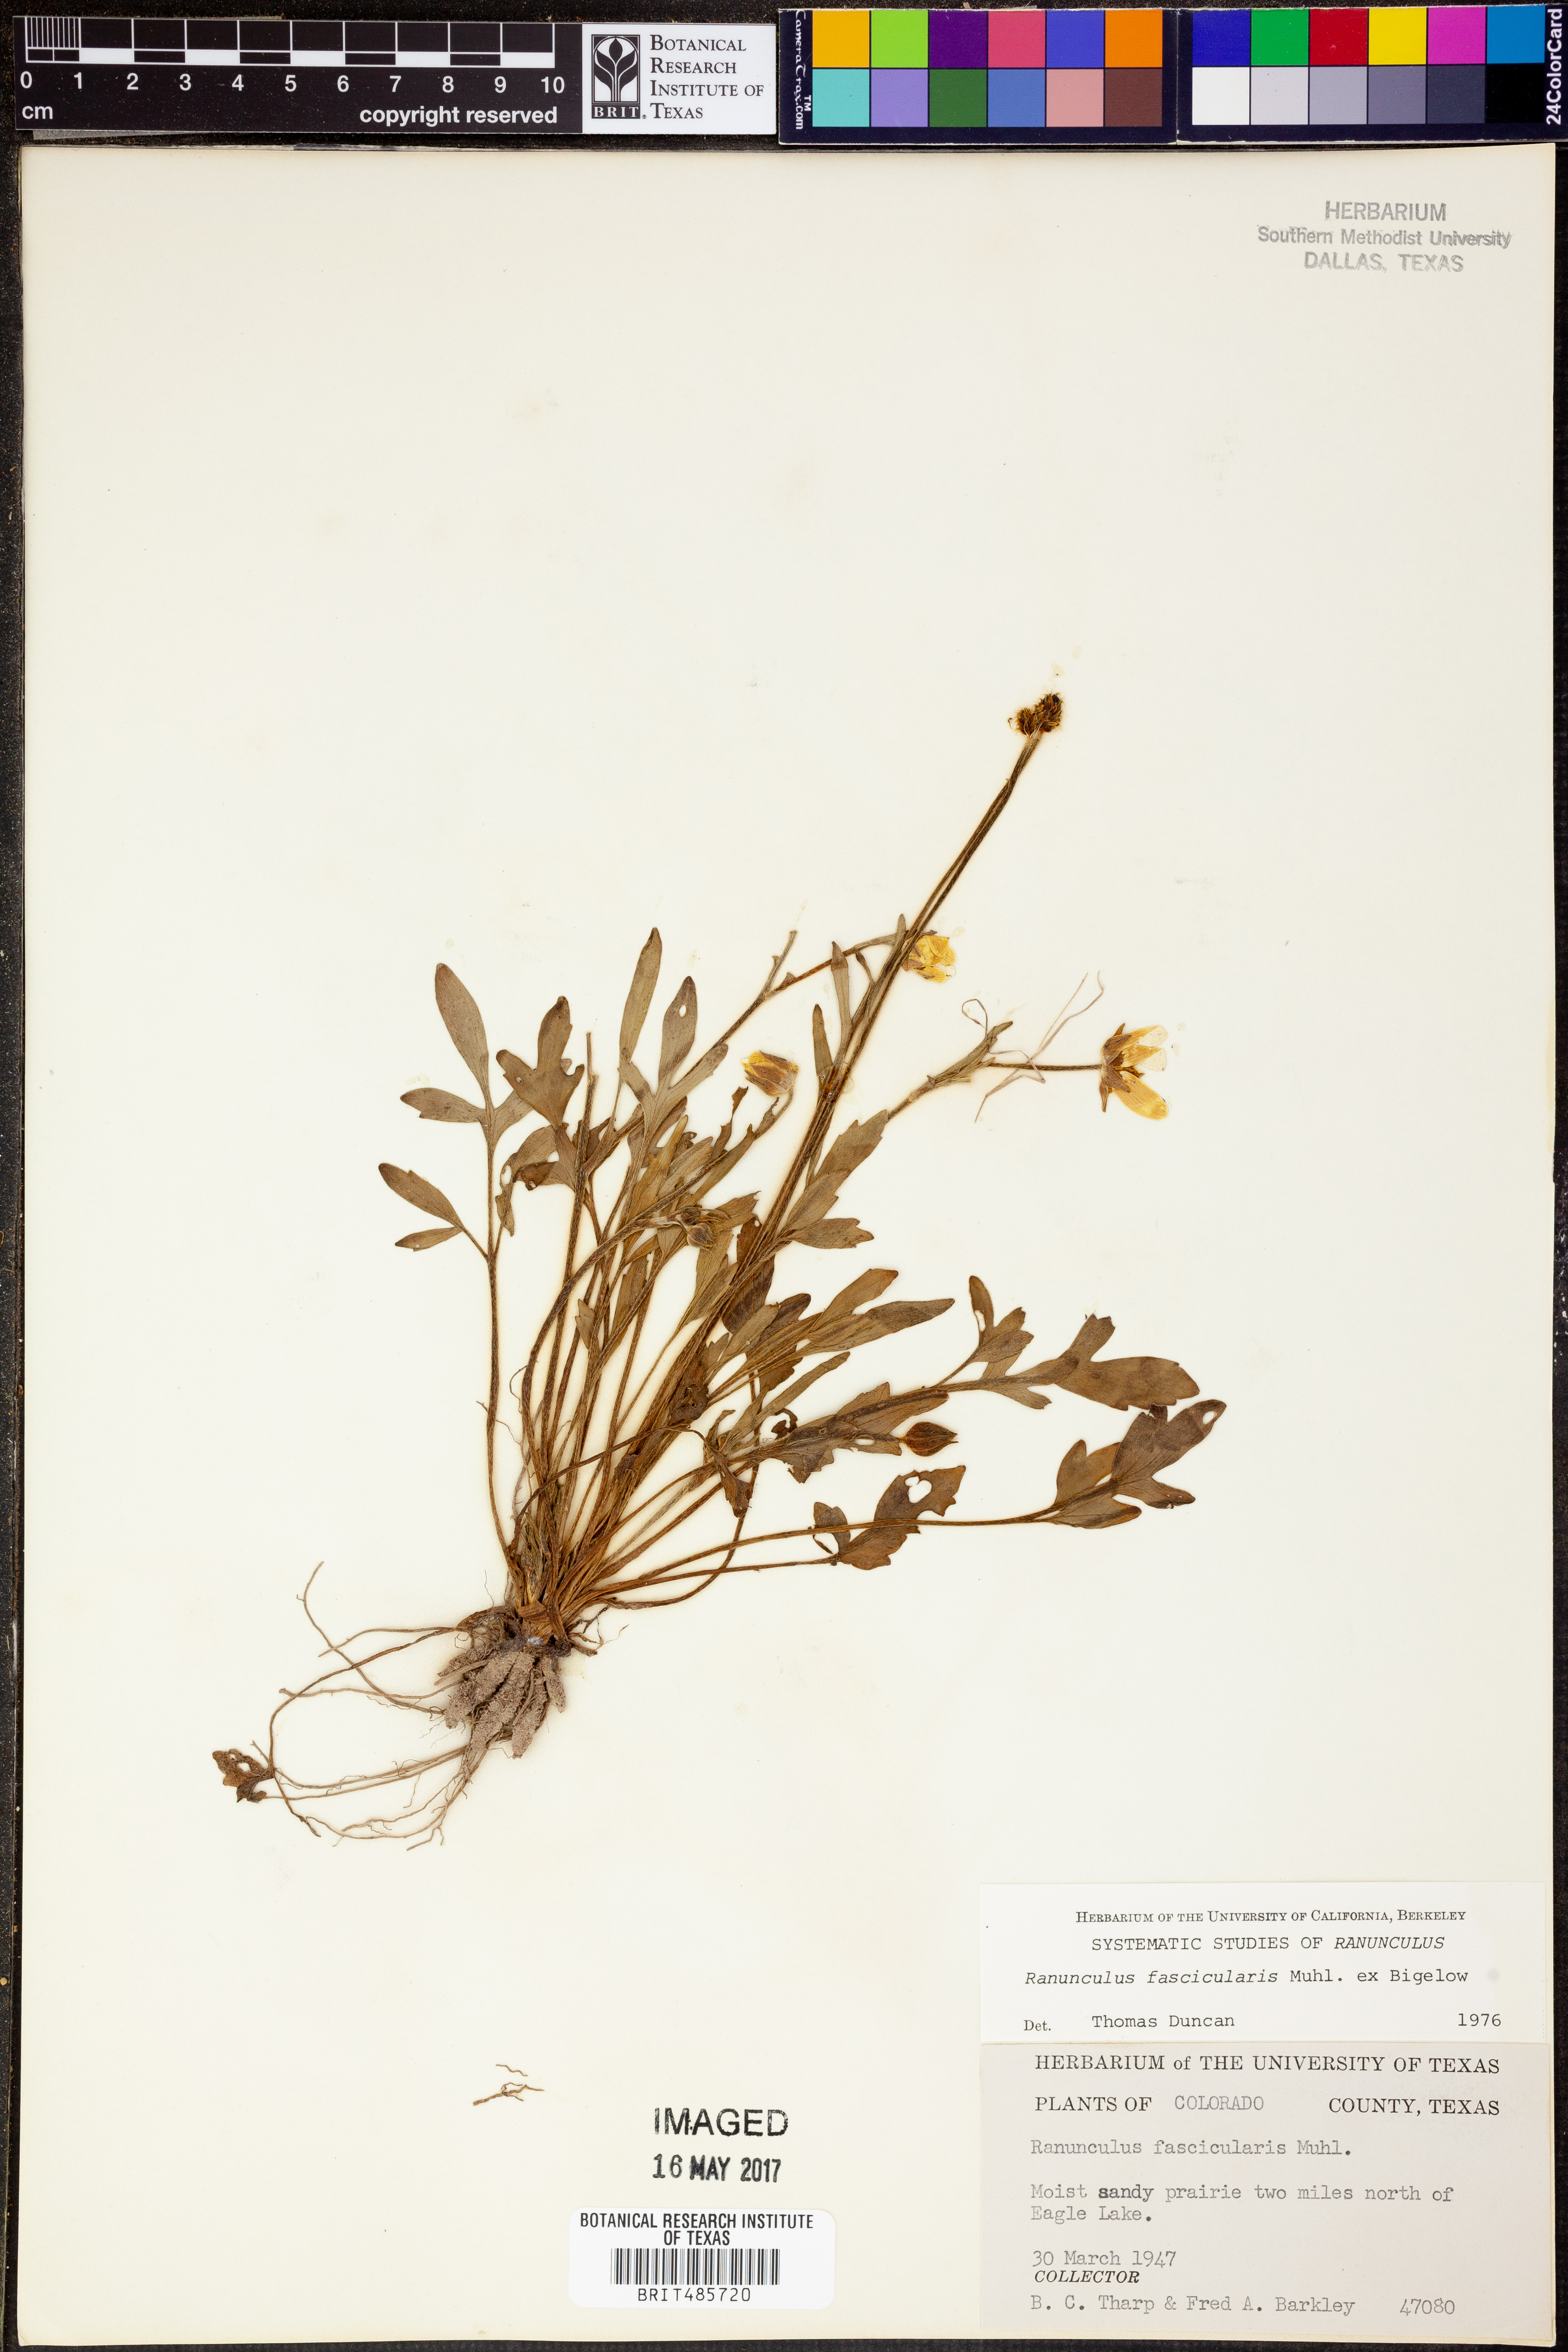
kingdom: Plantae
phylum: Tracheophyta
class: Magnoliopsida
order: Ranunculales
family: Ranunculaceae
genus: Ranunculus
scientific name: Ranunculus fascicularis
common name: Early buttercup
